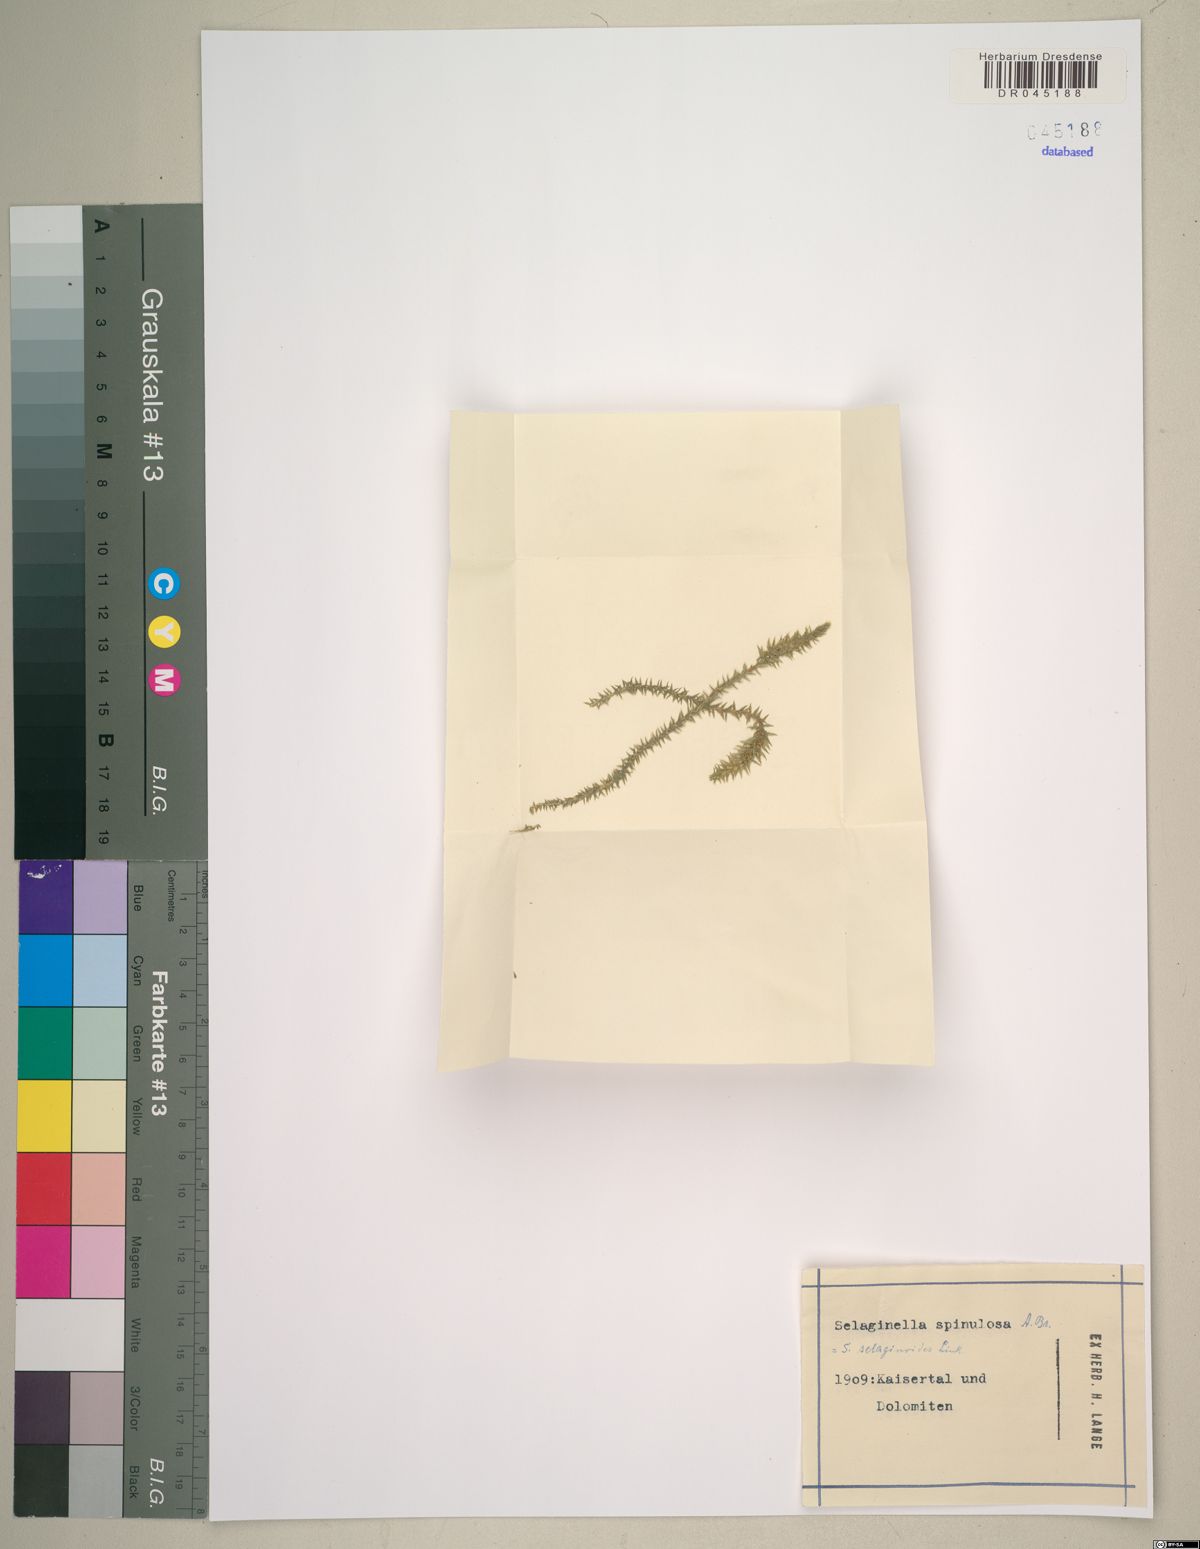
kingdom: Plantae
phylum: Tracheophyta
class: Lycopodiopsida
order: Selaginellales
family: Selaginellaceae
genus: Selaginella
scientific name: Selaginella selaginoides
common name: Prickly mountain-moss
